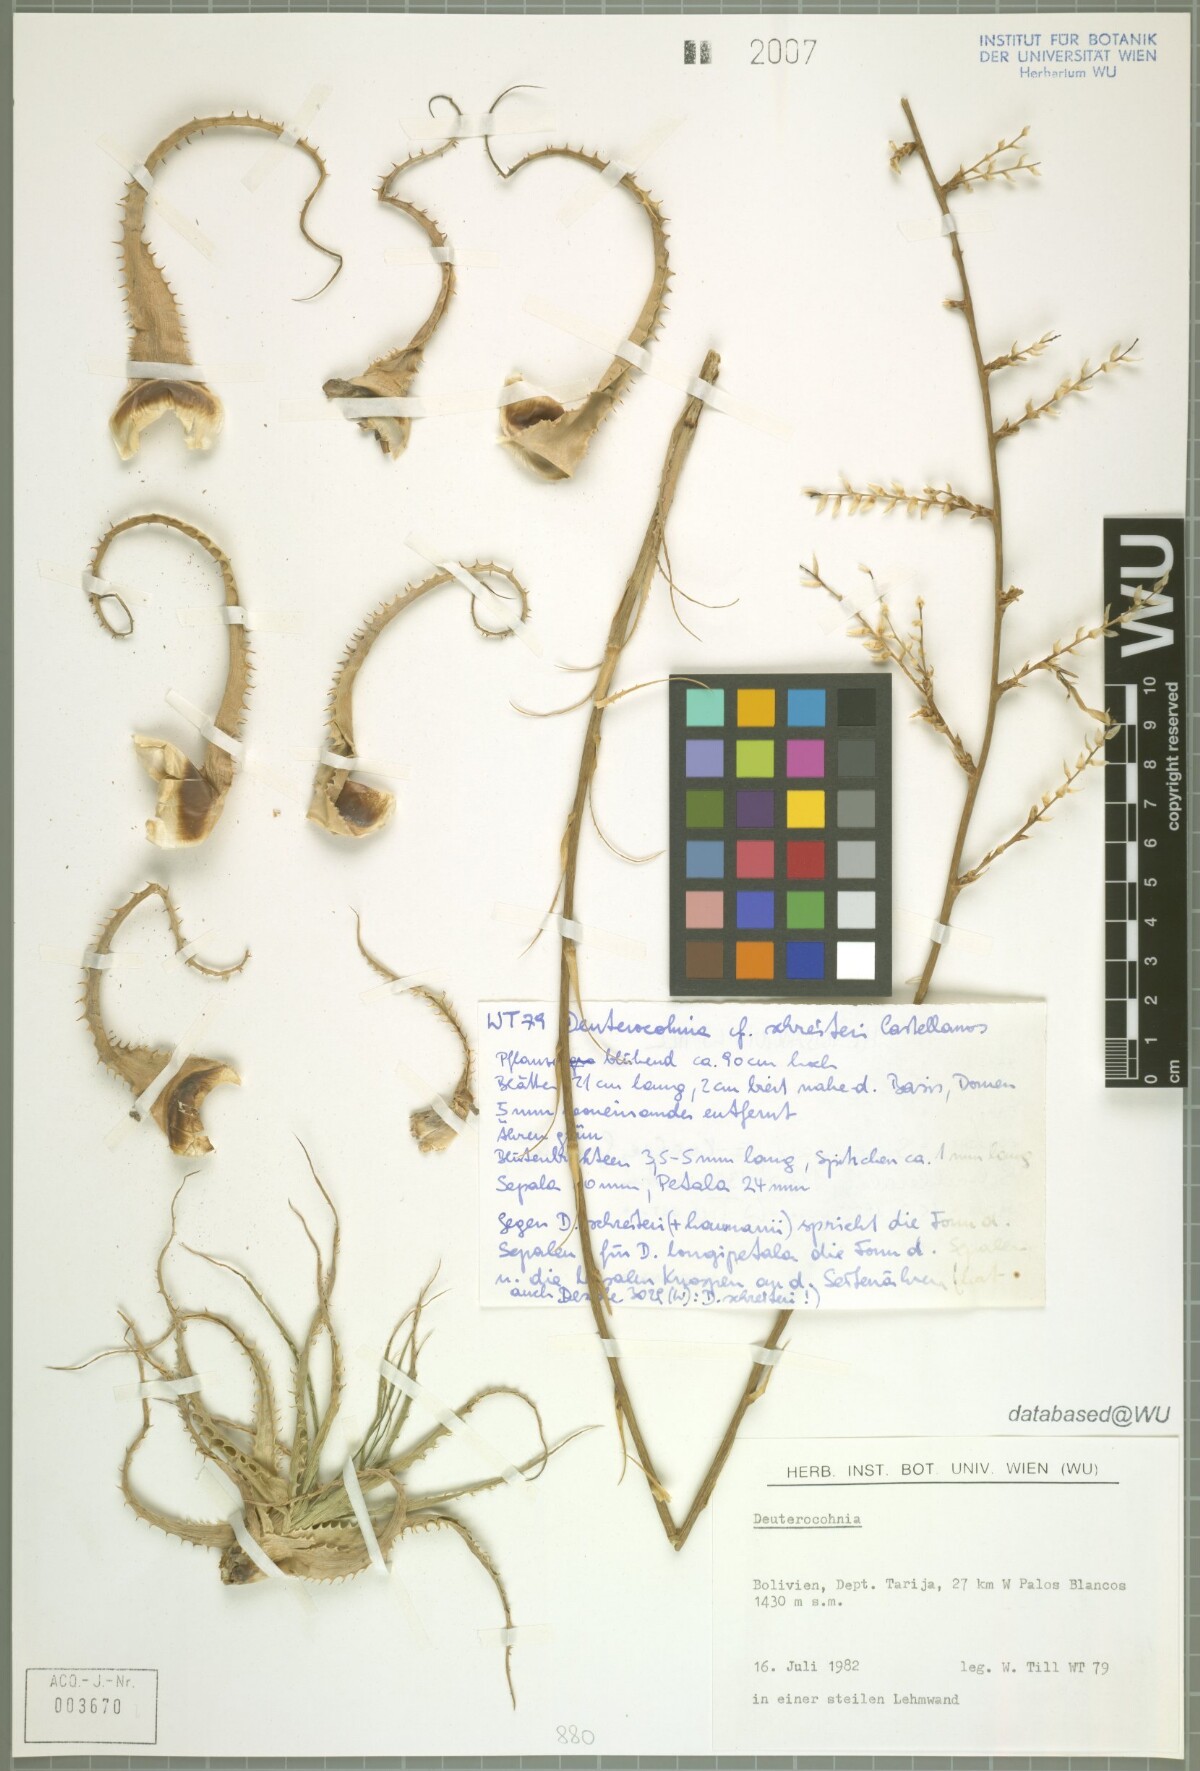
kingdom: Plantae
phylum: Tracheophyta
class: Liliopsida
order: Poales
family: Bromeliaceae
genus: Deuterocohnia
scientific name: Deuterocohnia
